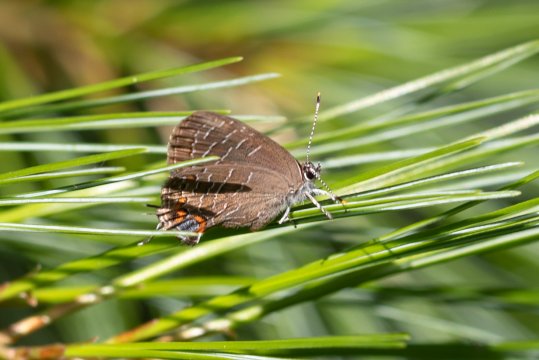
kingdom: Animalia
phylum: Arthropoda
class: Insecta
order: Lepidoptera
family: Lycaenidae
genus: Satyrium
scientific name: Satyrium liparops
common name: Striped Hairstreak
